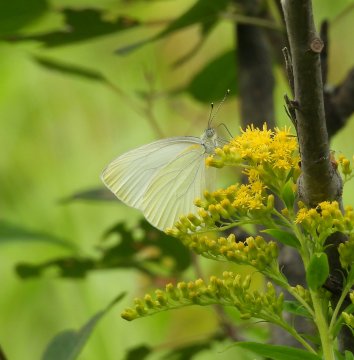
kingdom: Animalia
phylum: Arthropoda
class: Insecta
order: Lepidoptera
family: Pieridae
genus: Pieris
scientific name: Pieris oleracea
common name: Mustard White
